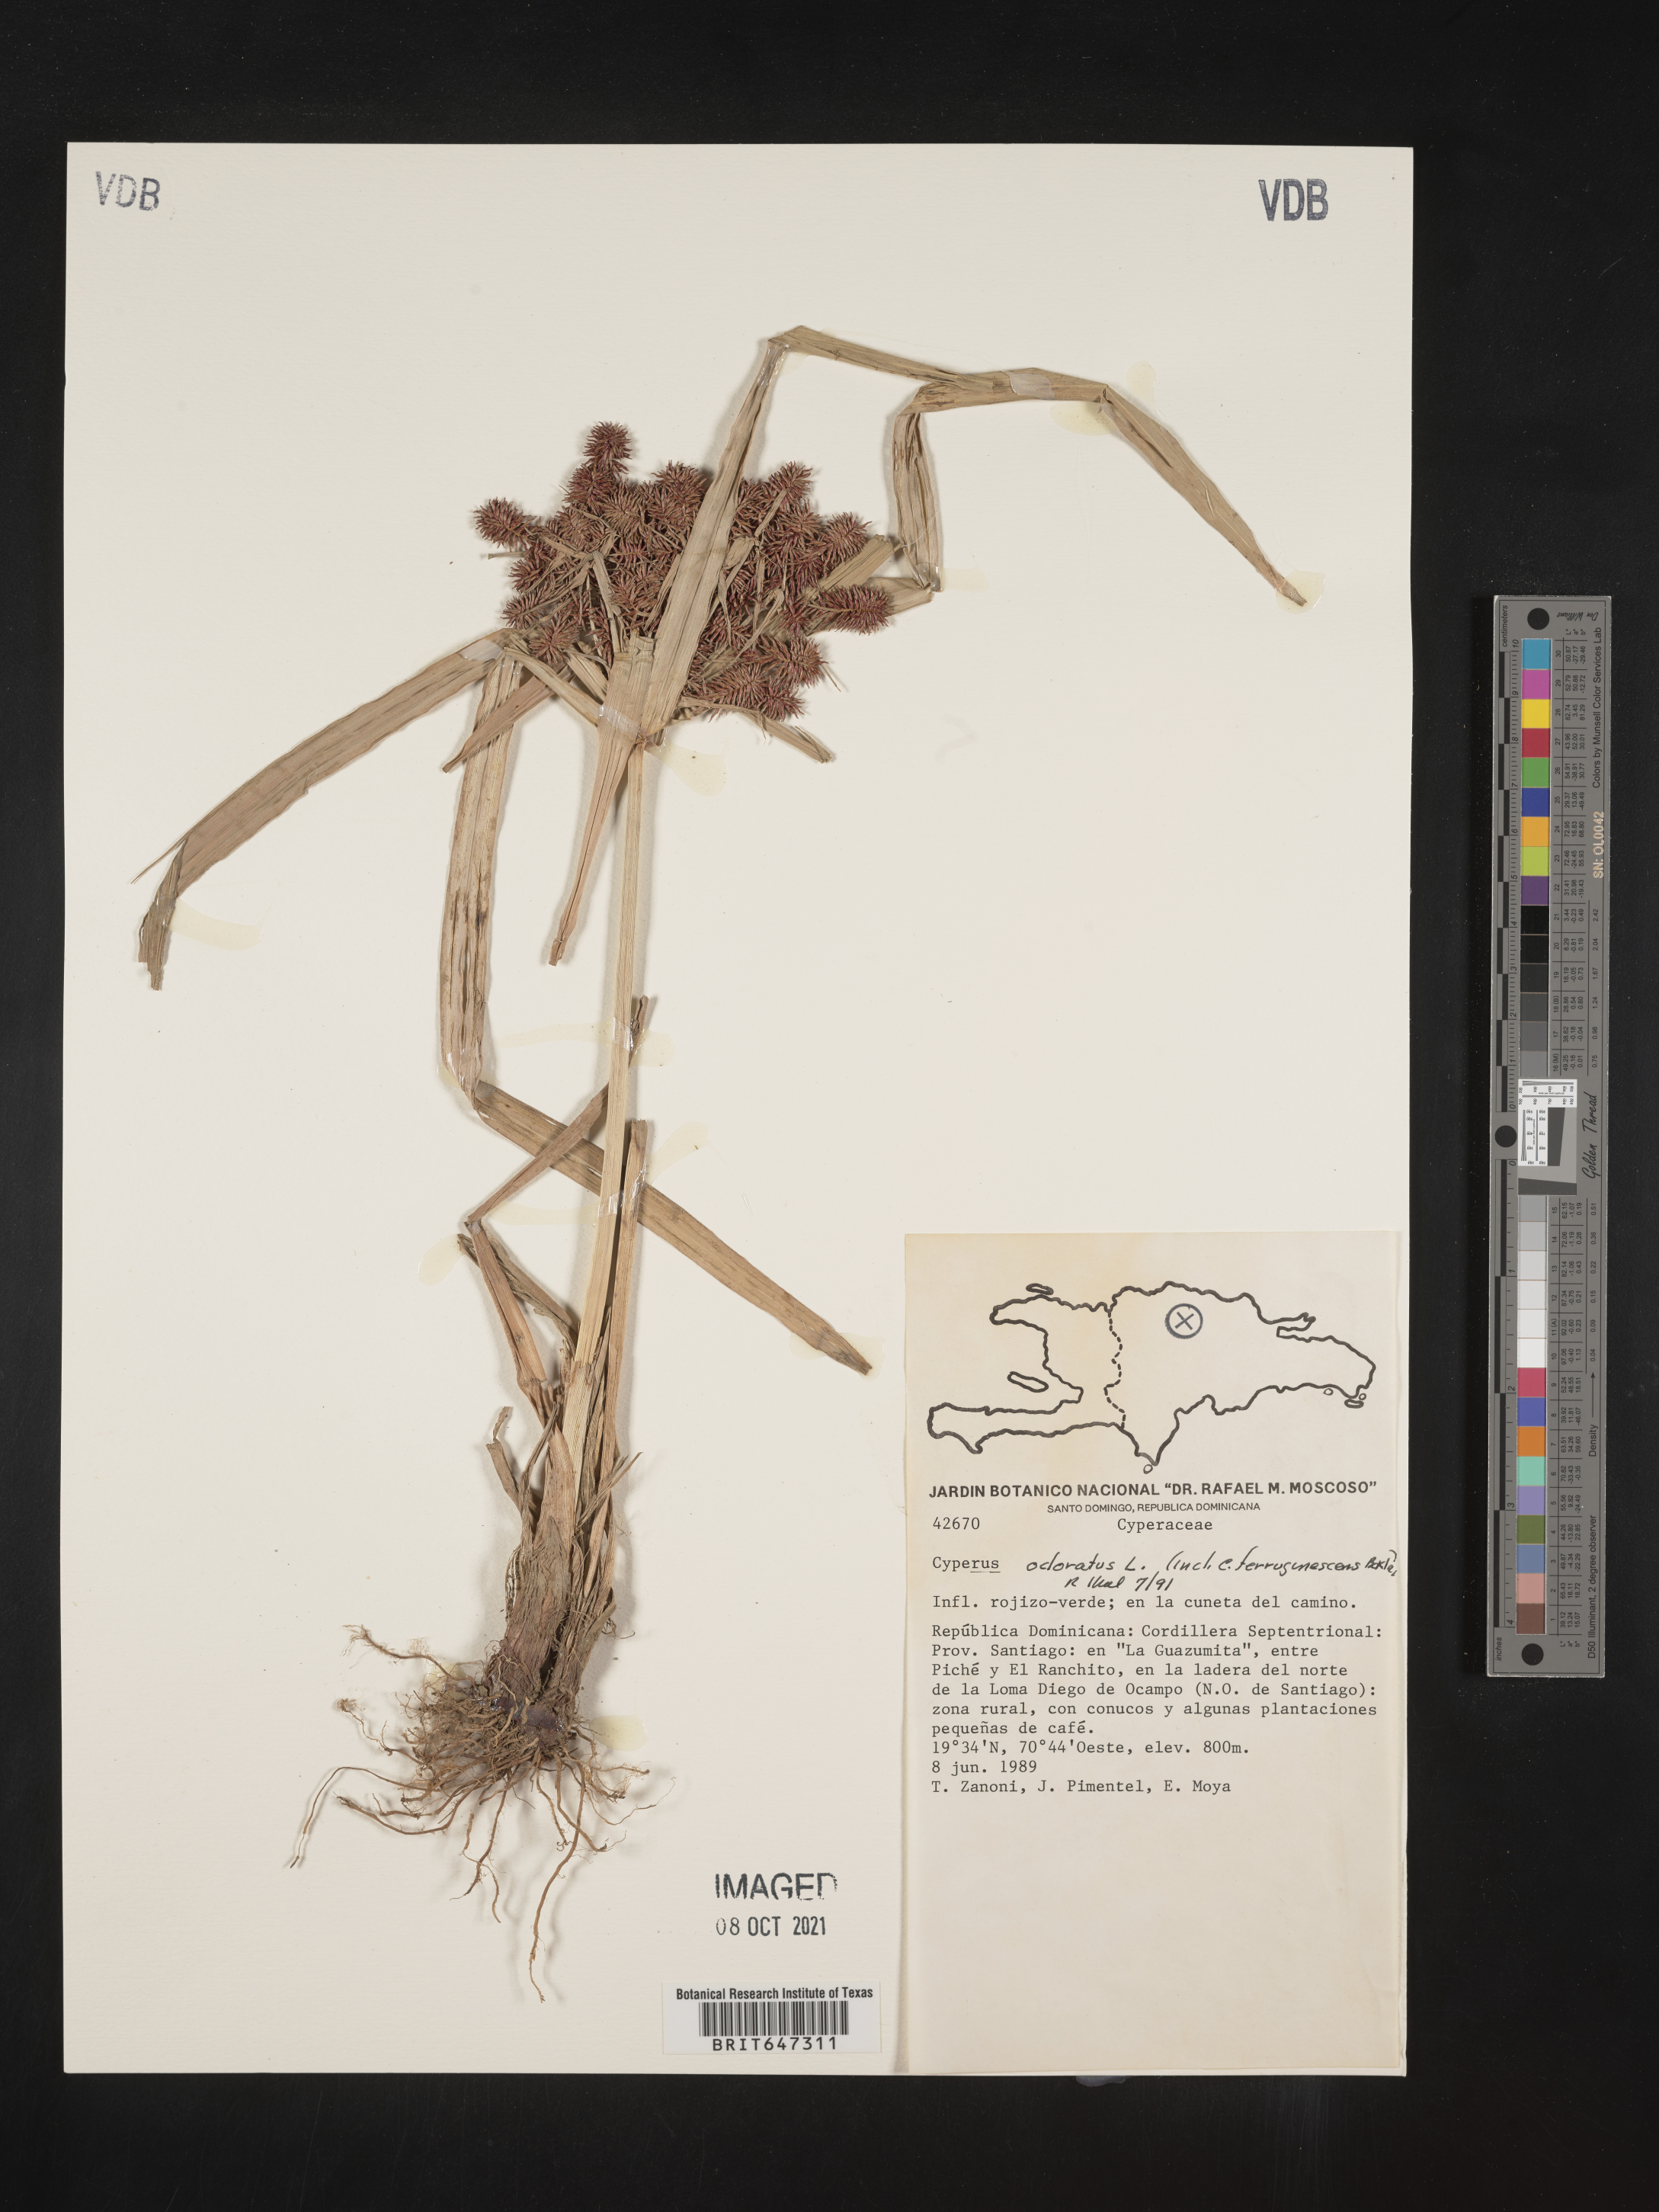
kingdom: Plantae
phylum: Tracheophyta
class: Liliopsida
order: Poales
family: Cyperaceae
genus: Cyperus
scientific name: Cyperus odoratus
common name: Fragrant flatsedge
